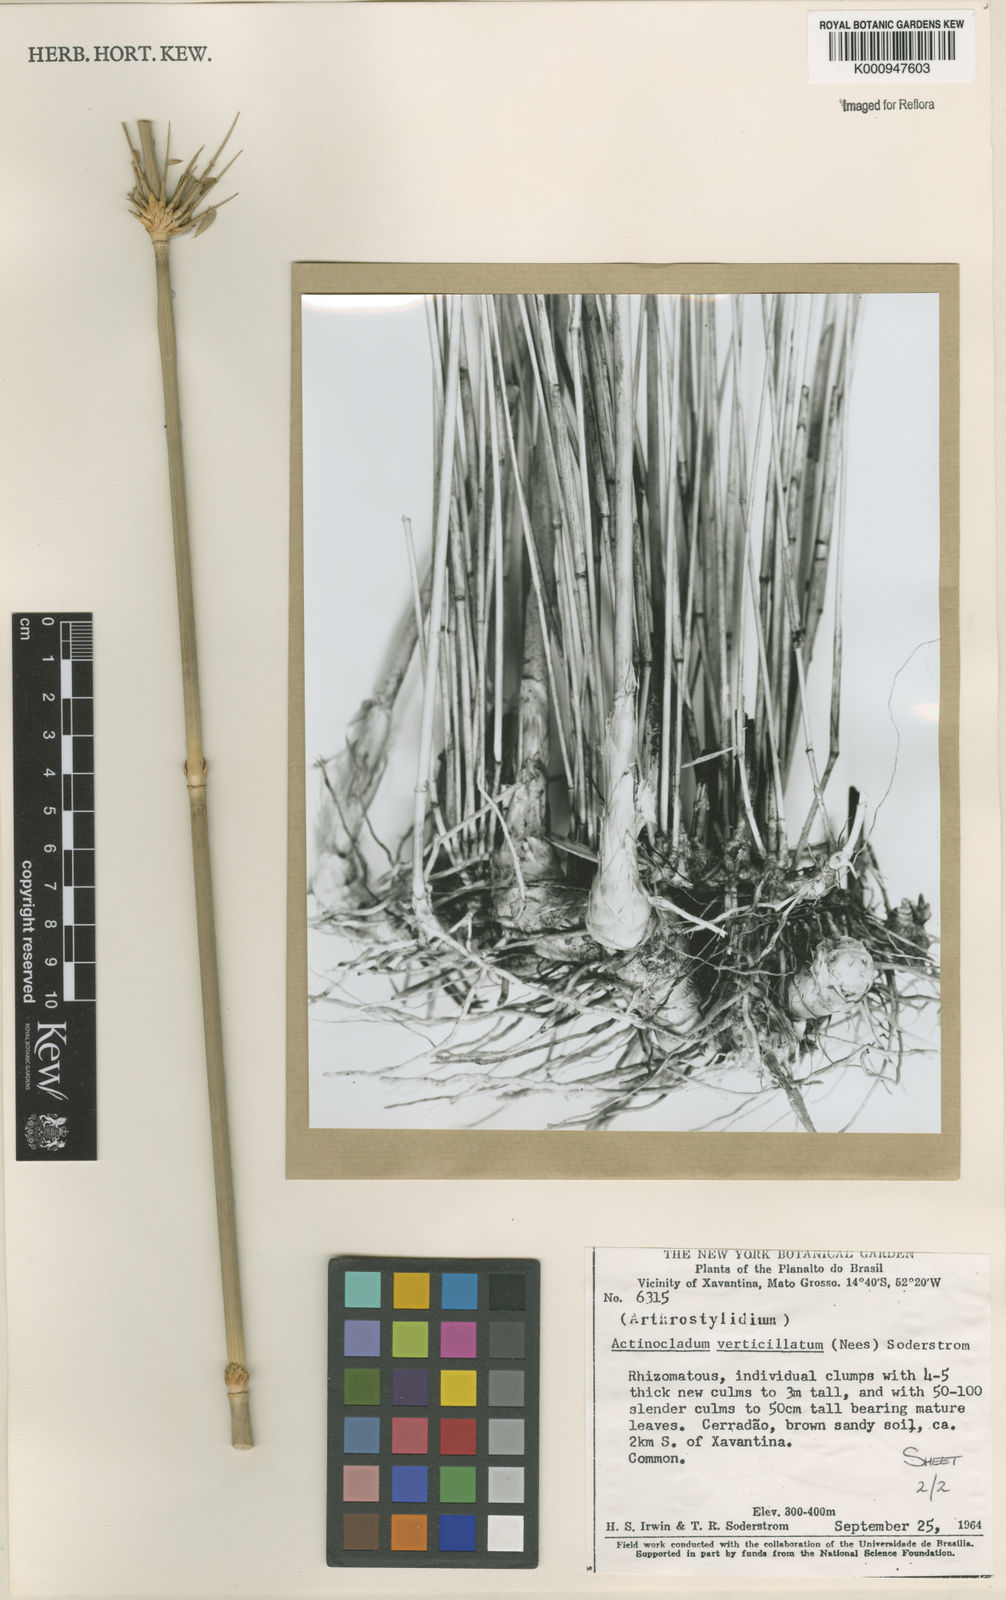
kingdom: Plantae
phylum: Tracheophyta
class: Liliopsida
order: Poales
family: Poaceae
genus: Actinocladum
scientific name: Actinocladum verticillatum
